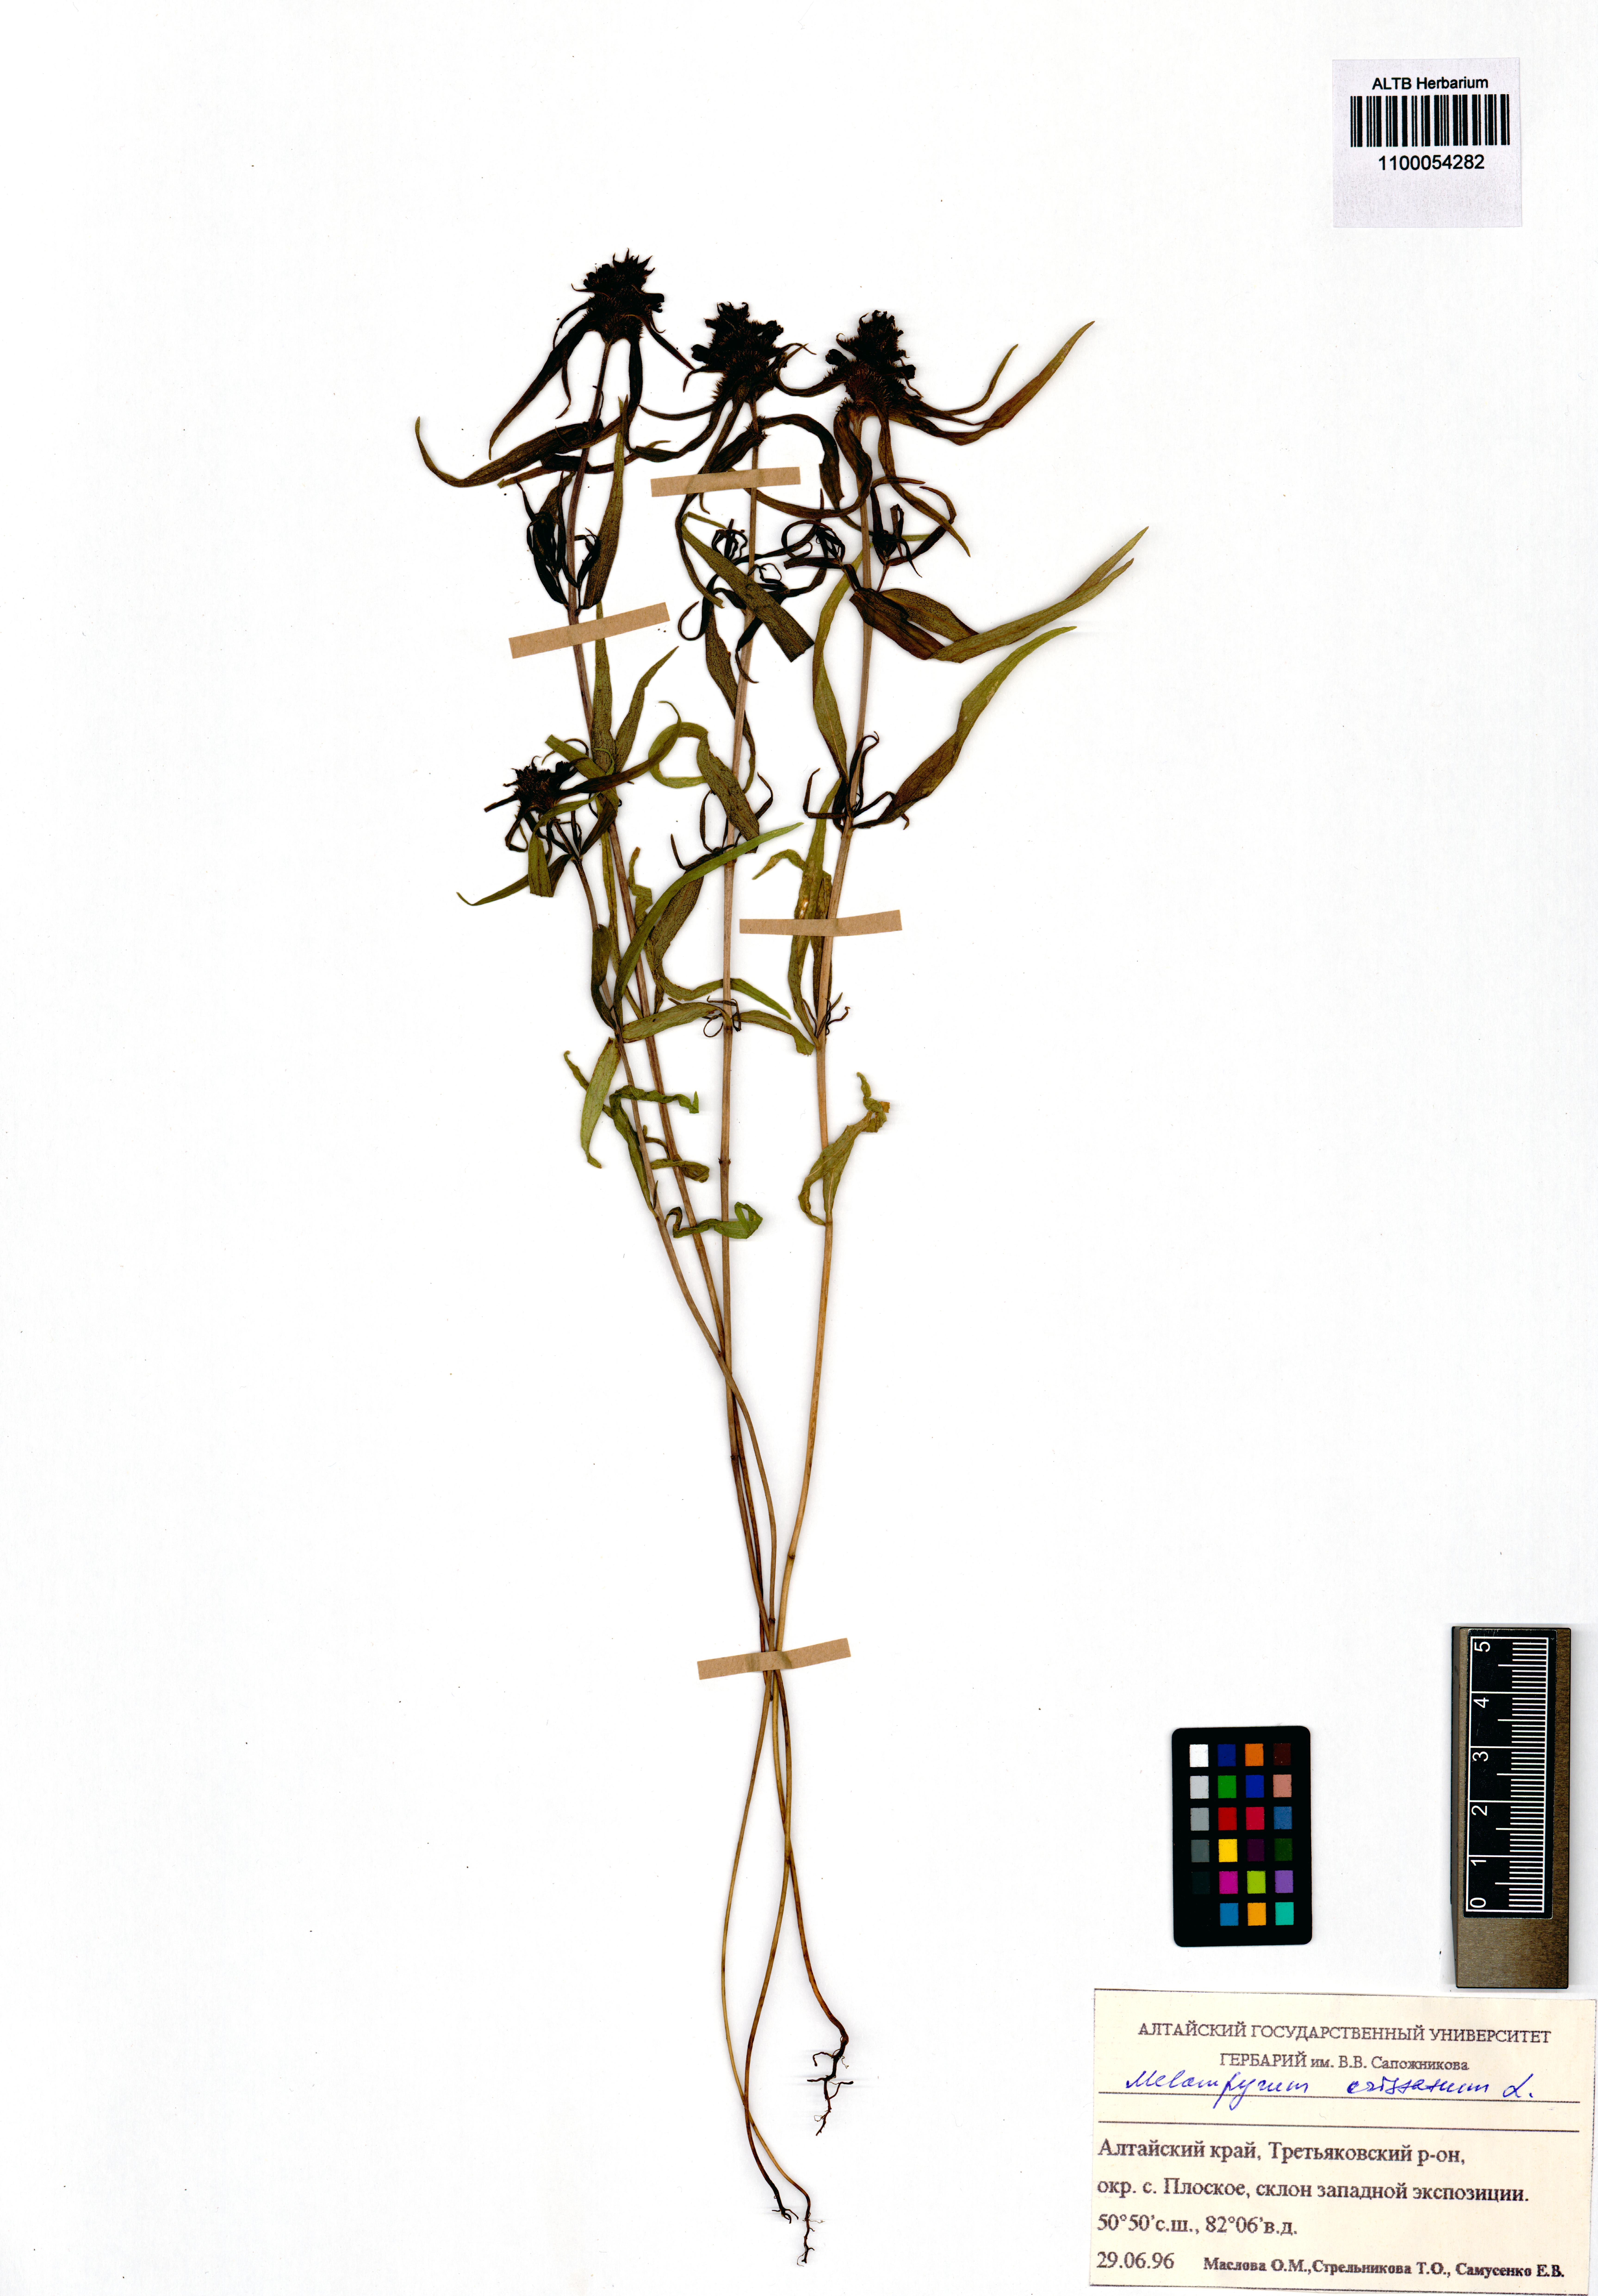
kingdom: Plantae
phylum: Tracheophyta
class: Magnoliopsida
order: Lamiales
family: Orobanchaceae
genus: Melampyrum
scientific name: Melampyrum cristatum
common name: Crested cow-wheat
